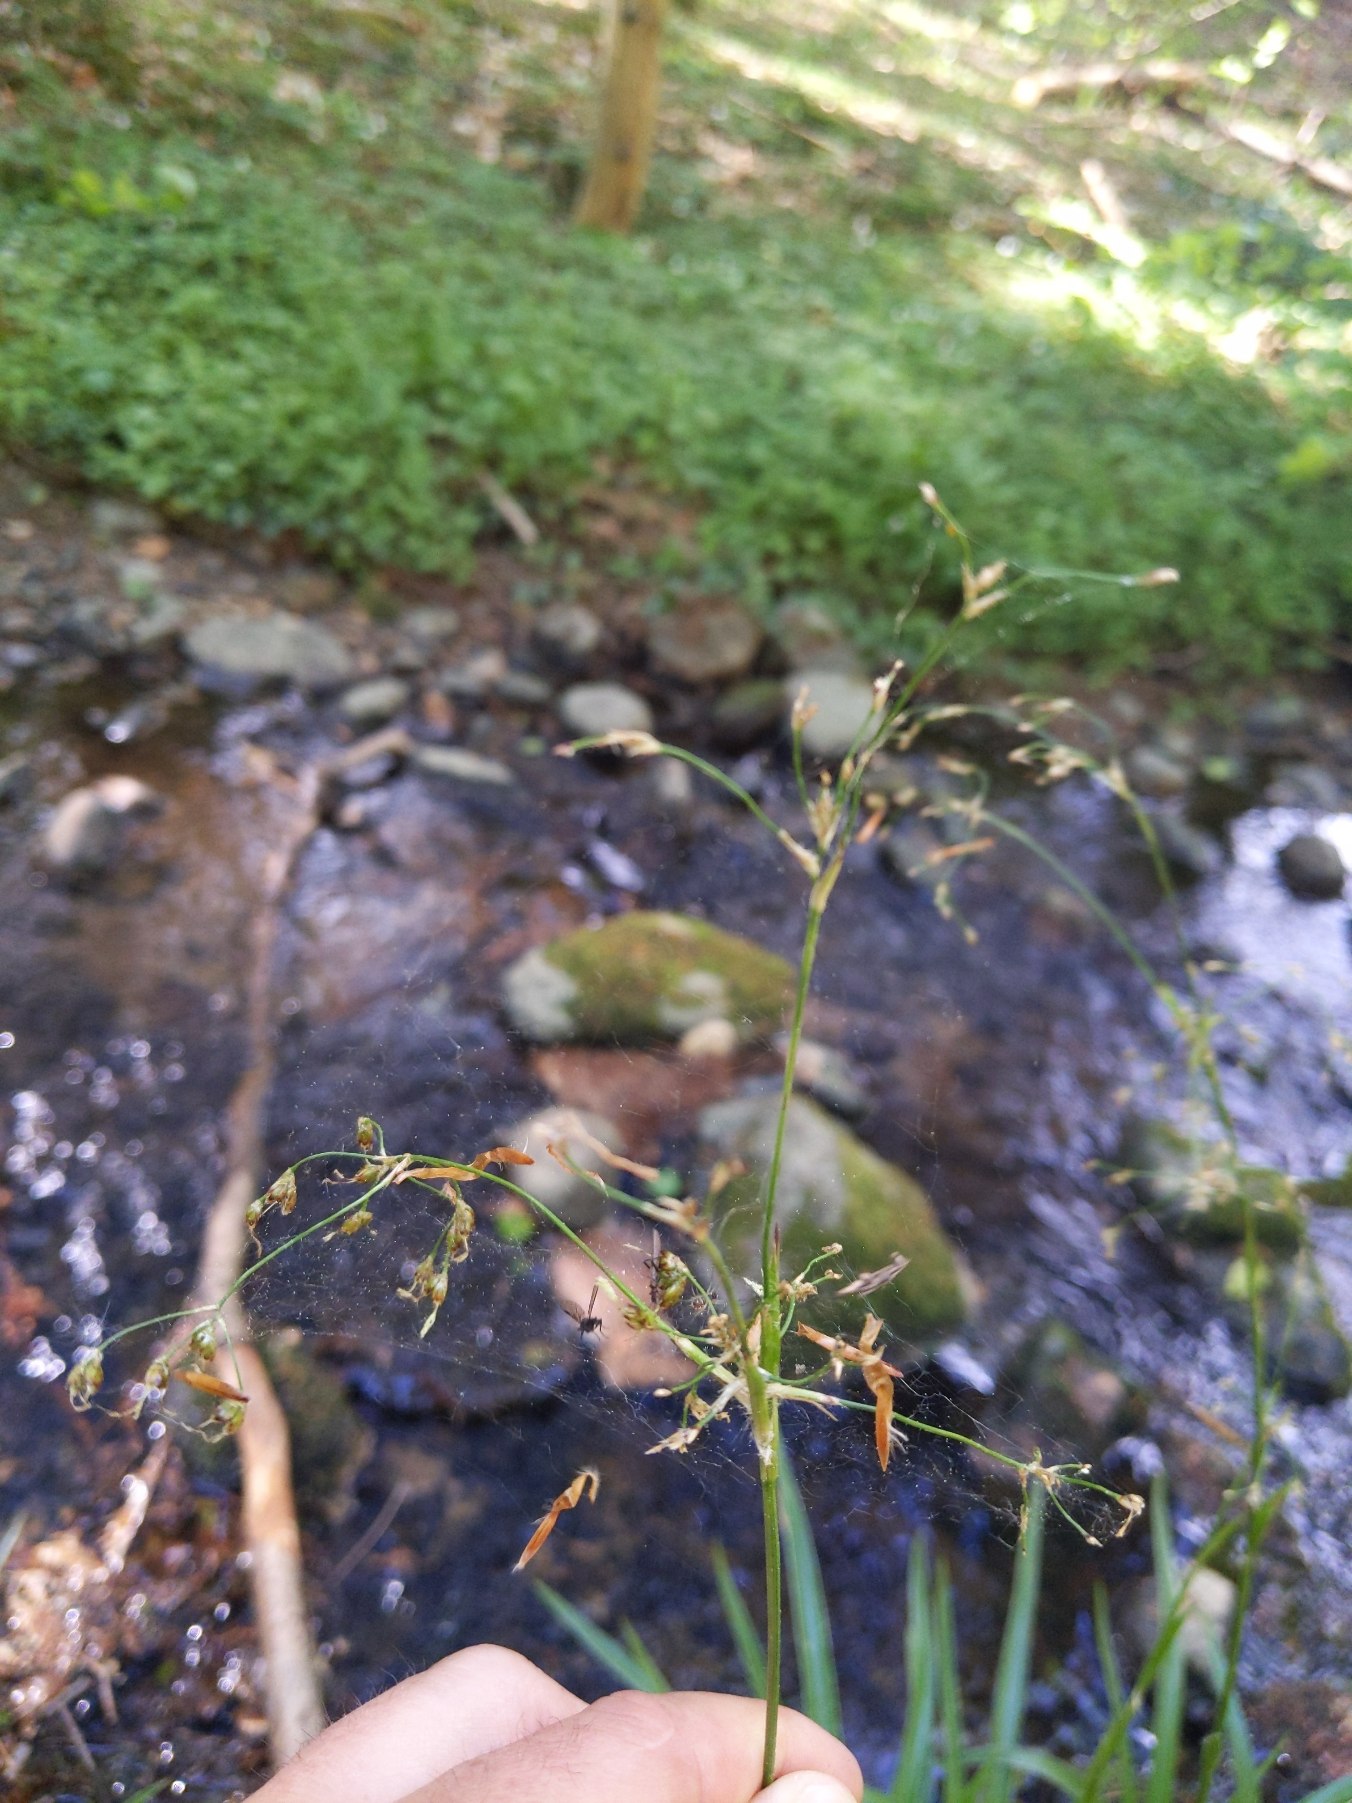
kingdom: Plantae
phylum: Tracheophyta
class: Liliopsida
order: Poales
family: Juncaceae
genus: Luzula
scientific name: Luzula sylvatica
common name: Stor frytle
